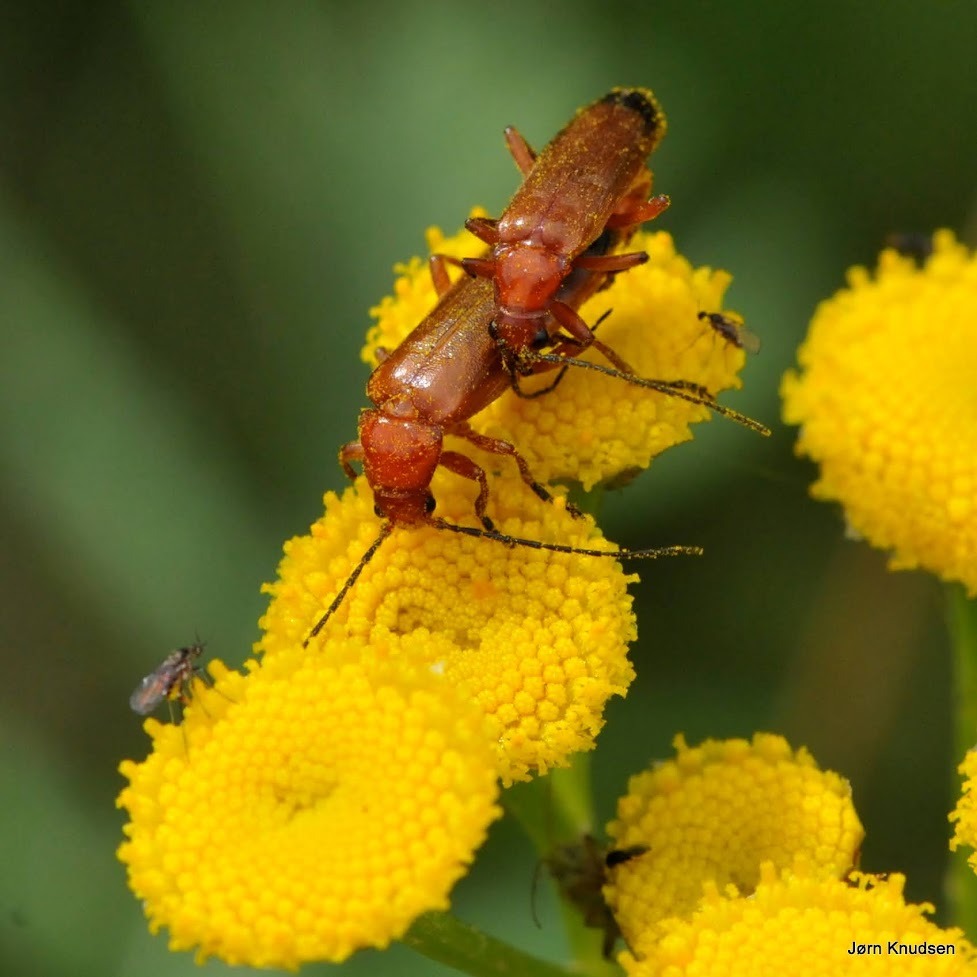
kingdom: Animalia
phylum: Arthropoda
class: Insecta
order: Coleoptera
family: Cantharidae
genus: Rhagonycha
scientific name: Rhagonycha fulva
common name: Præstebille
